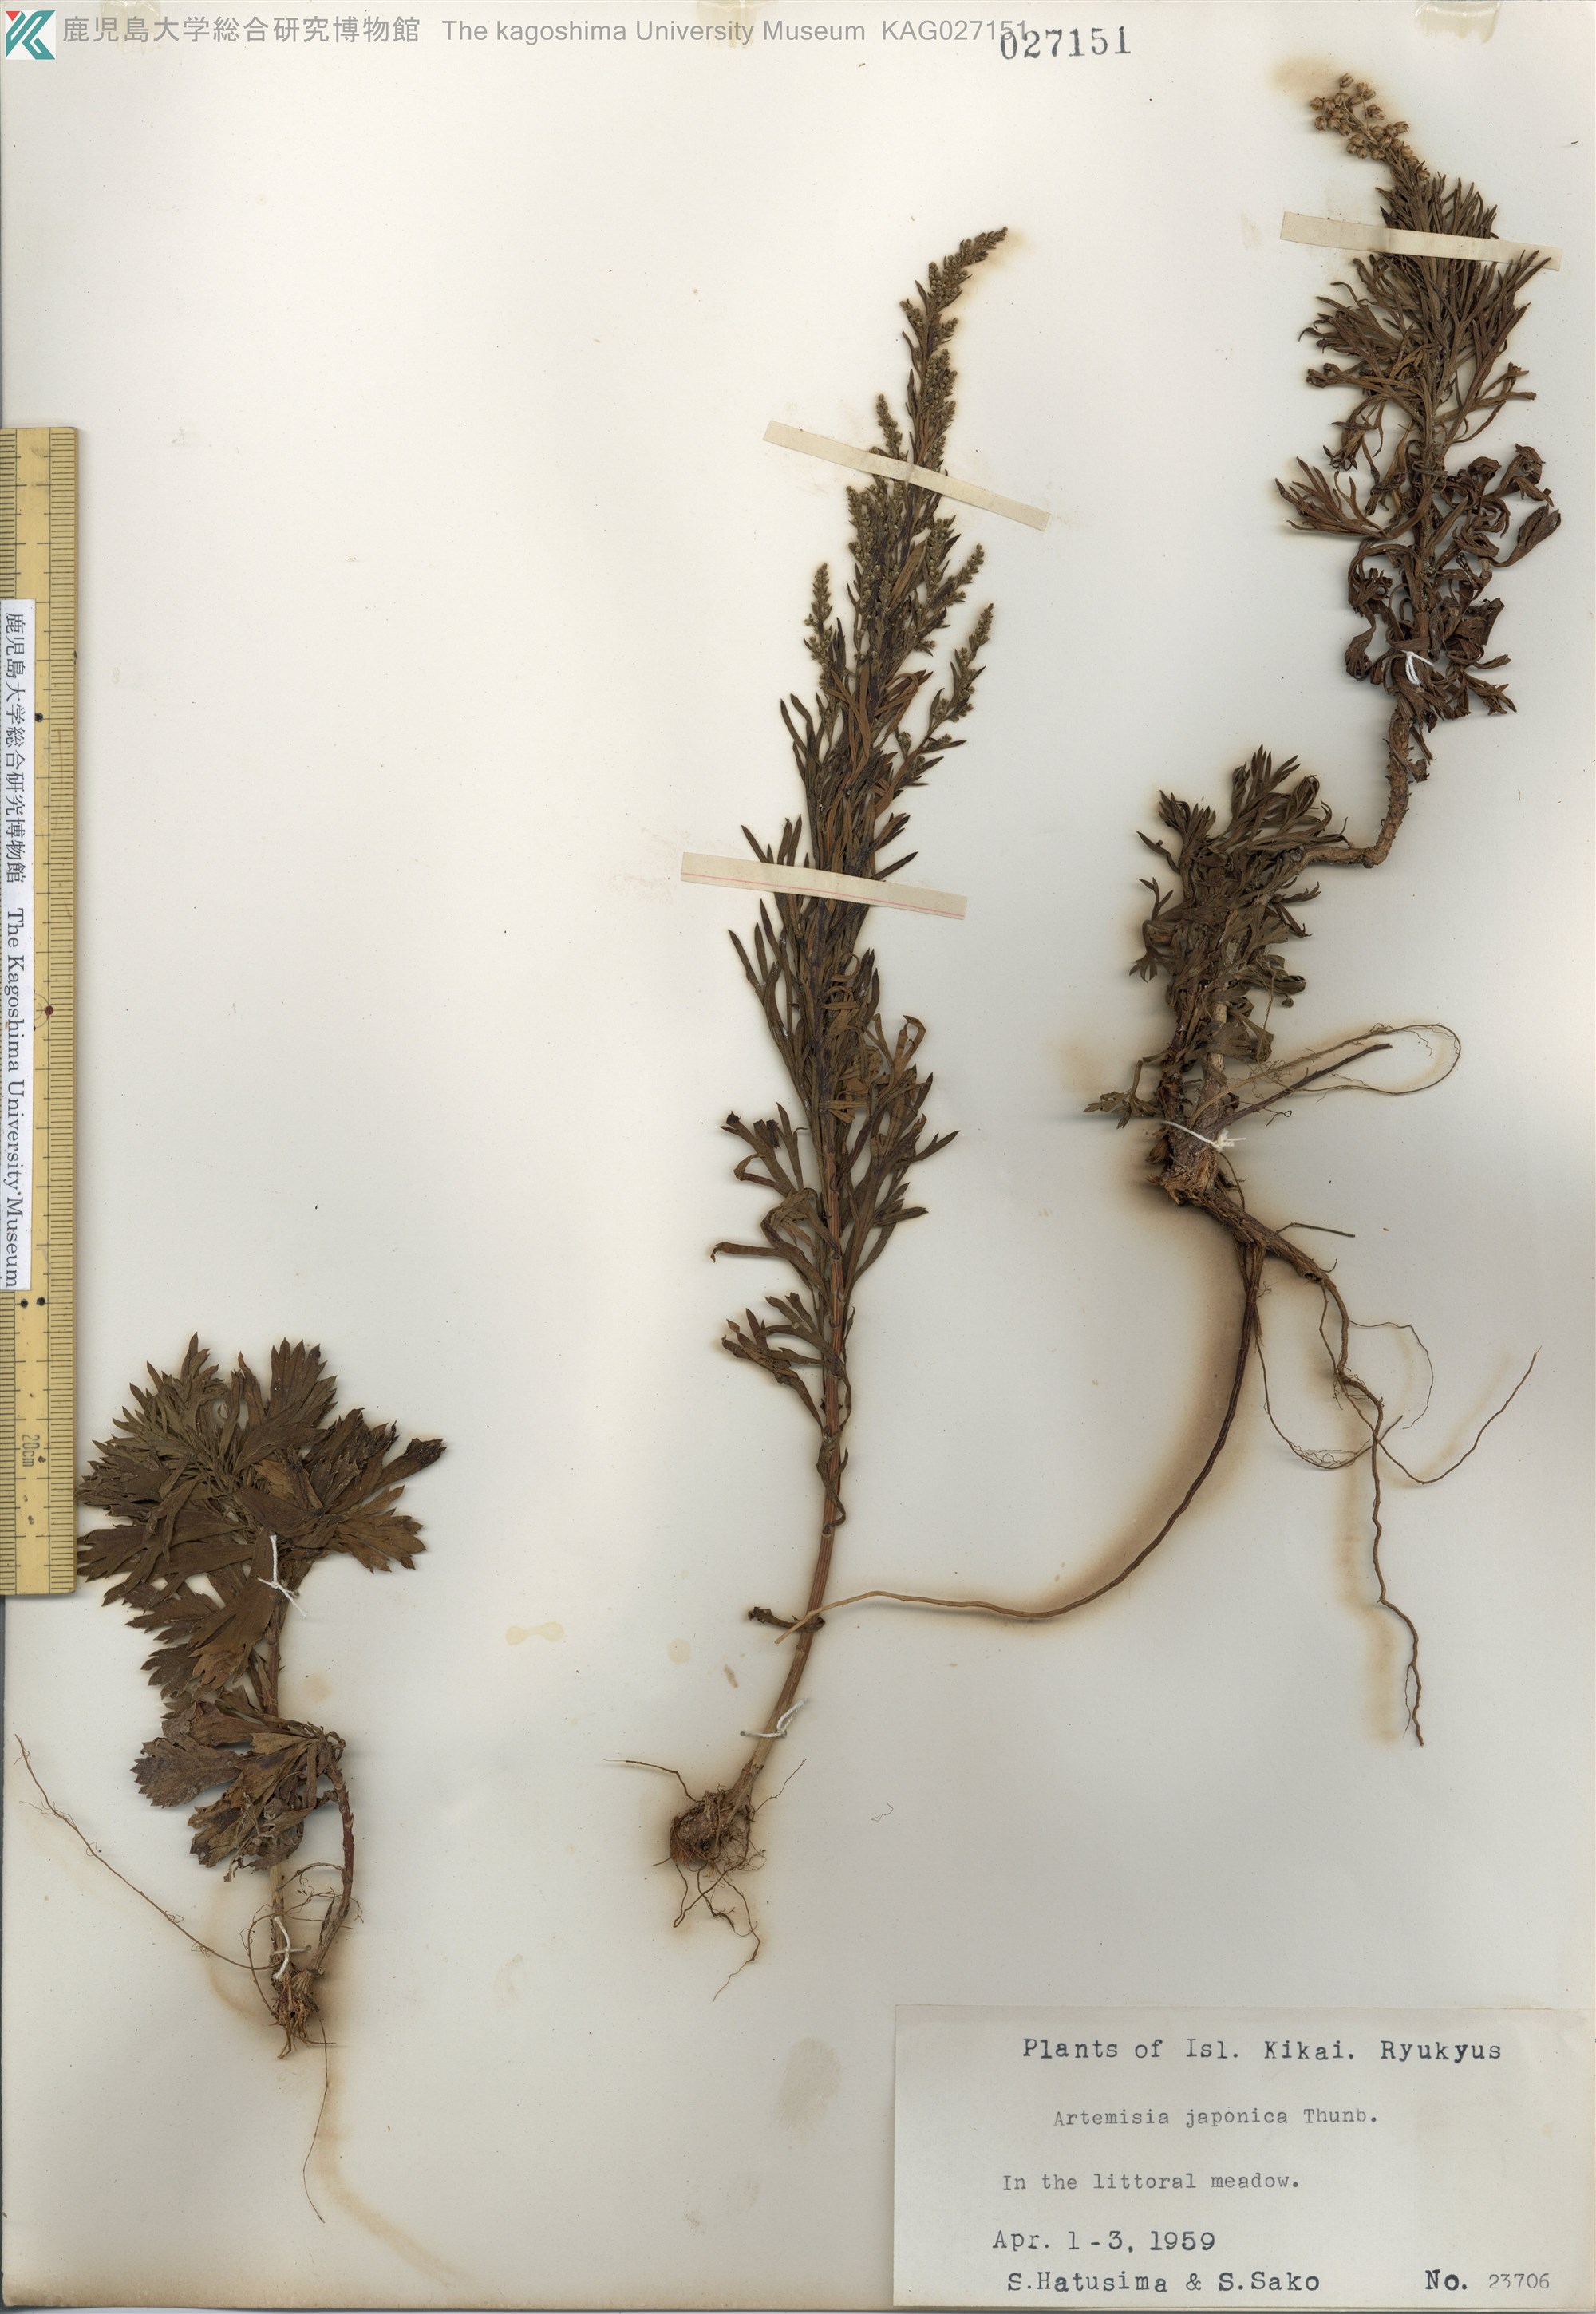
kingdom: Plantae
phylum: Tracheophyta
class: Magnoliopsida
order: Asterales
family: Asteraceae
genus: Artemisia
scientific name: Artemisia japonica
